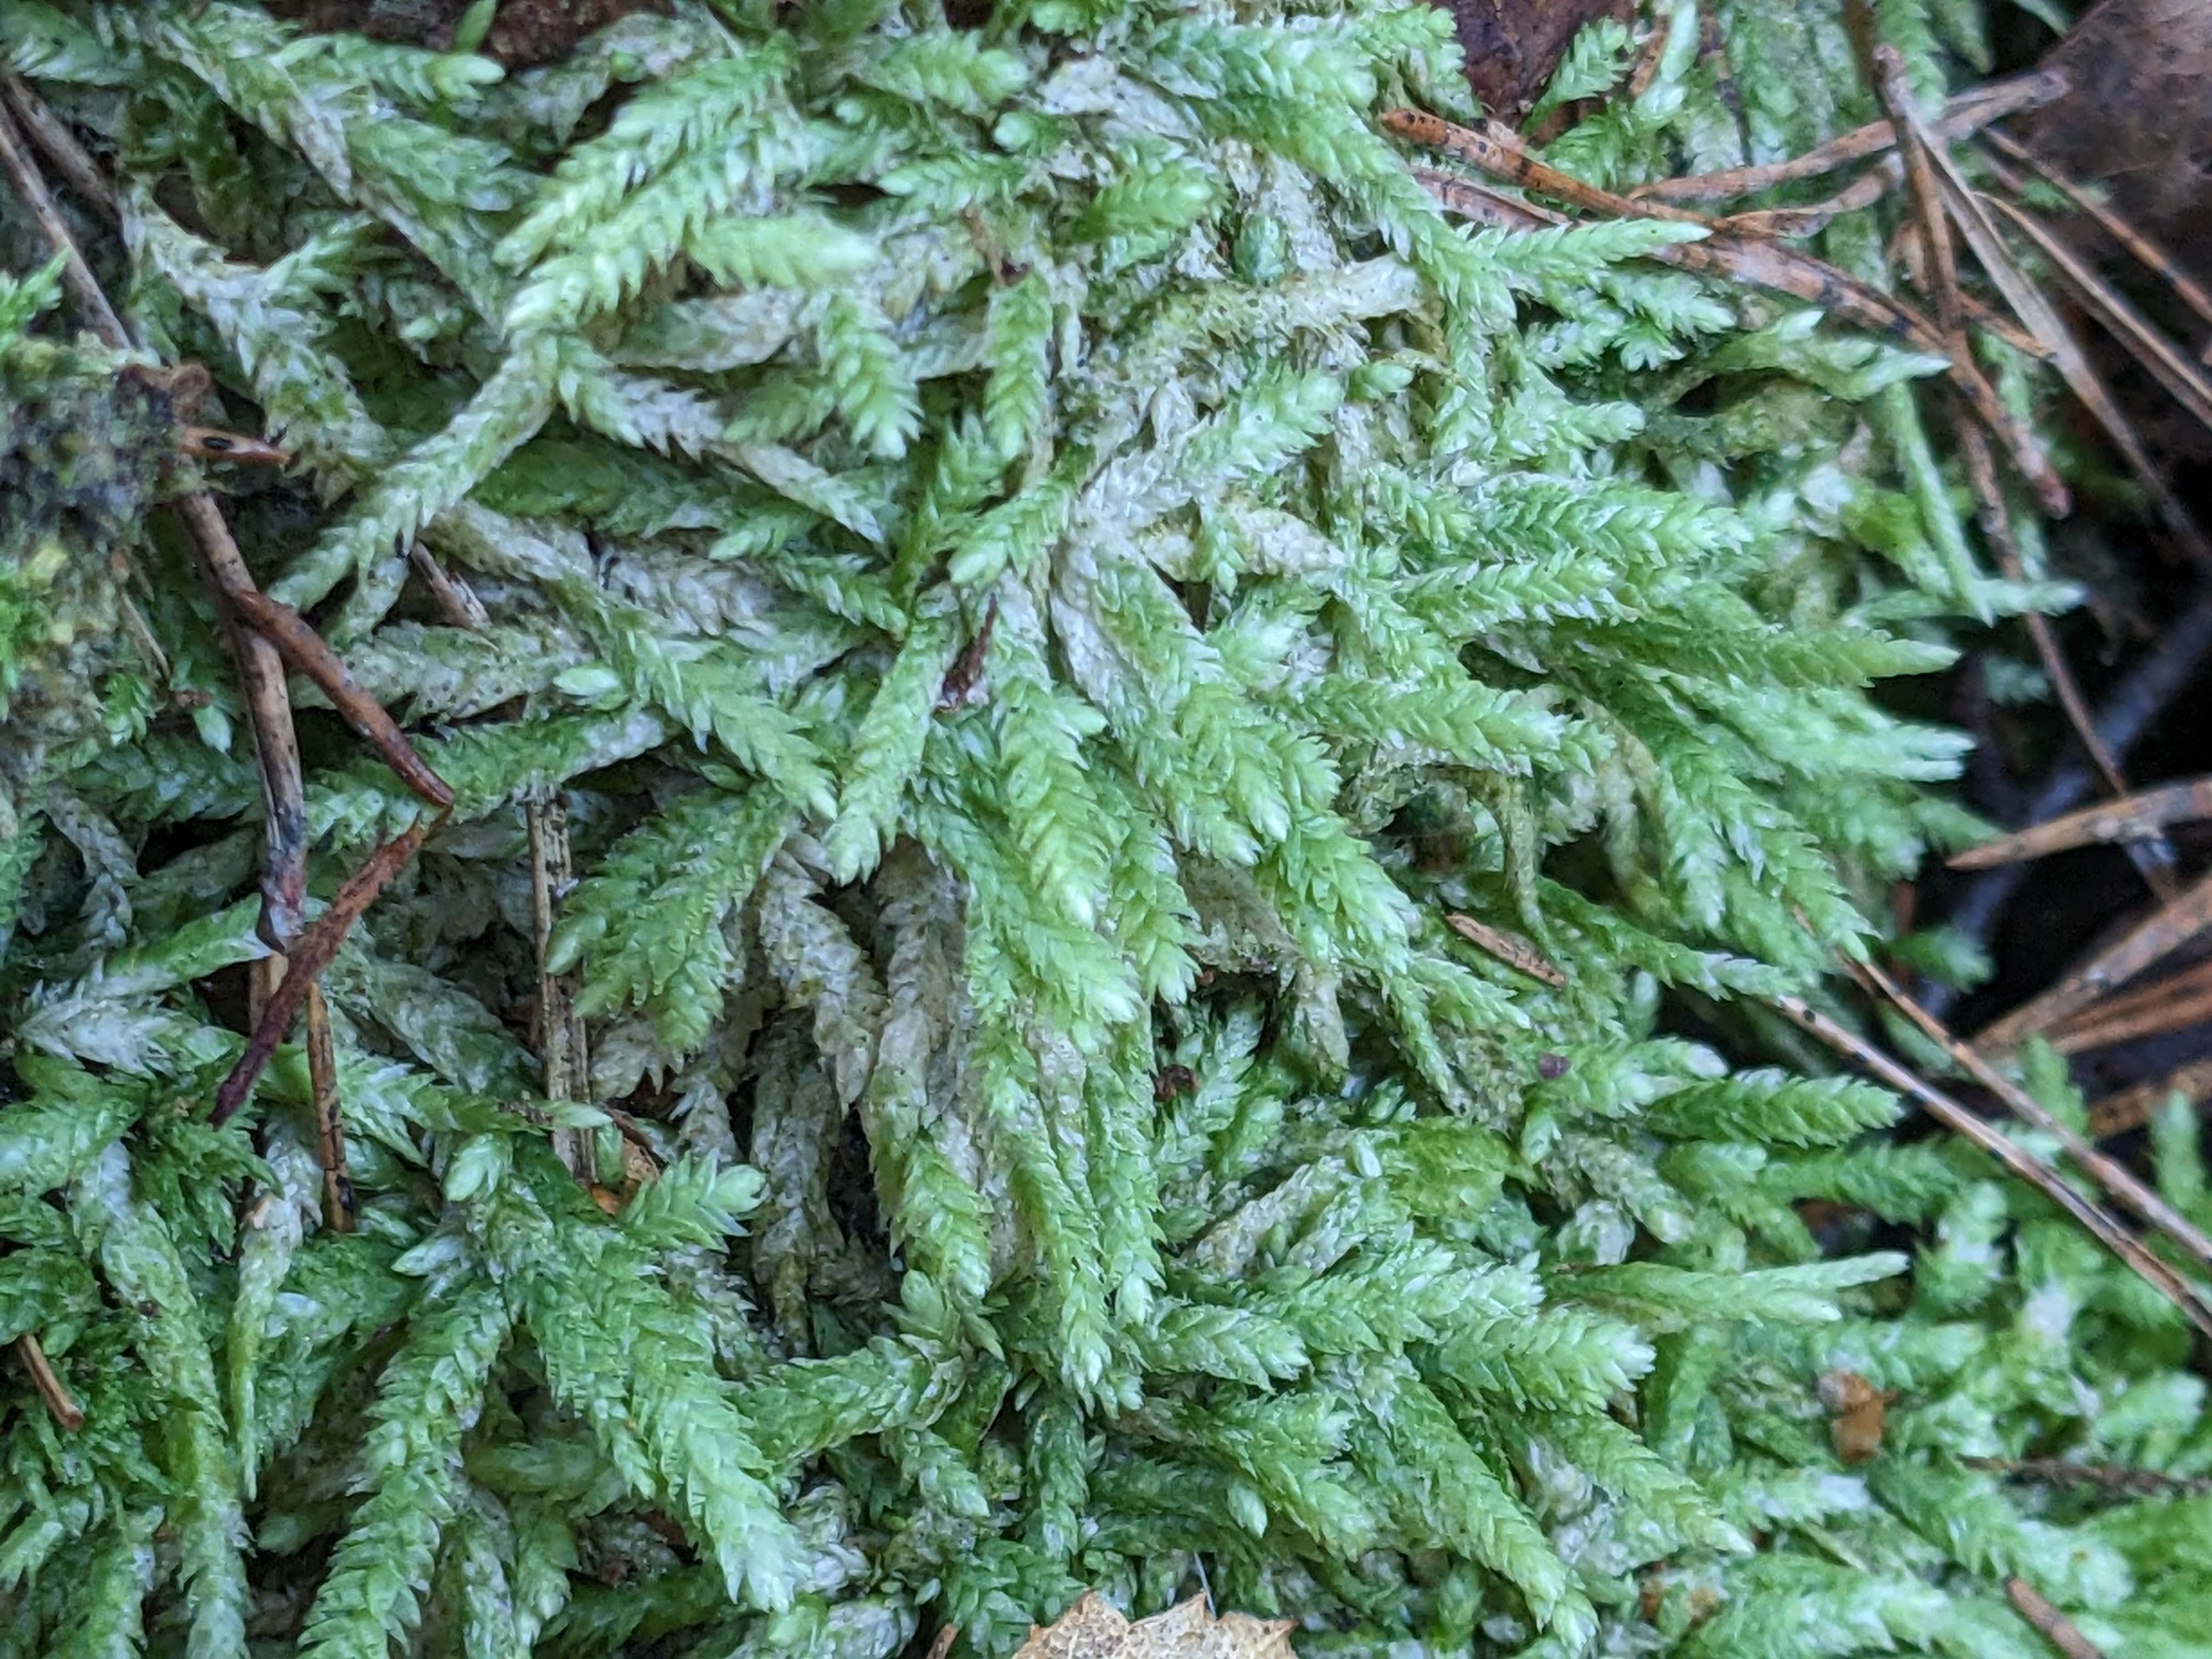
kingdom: Plantae
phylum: Bryophyta
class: Bryopsida
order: Hypnales
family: Plagiotheciaceae
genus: Plagiothecium
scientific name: Plagiothecium undulatum
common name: Bølget tæppemos
